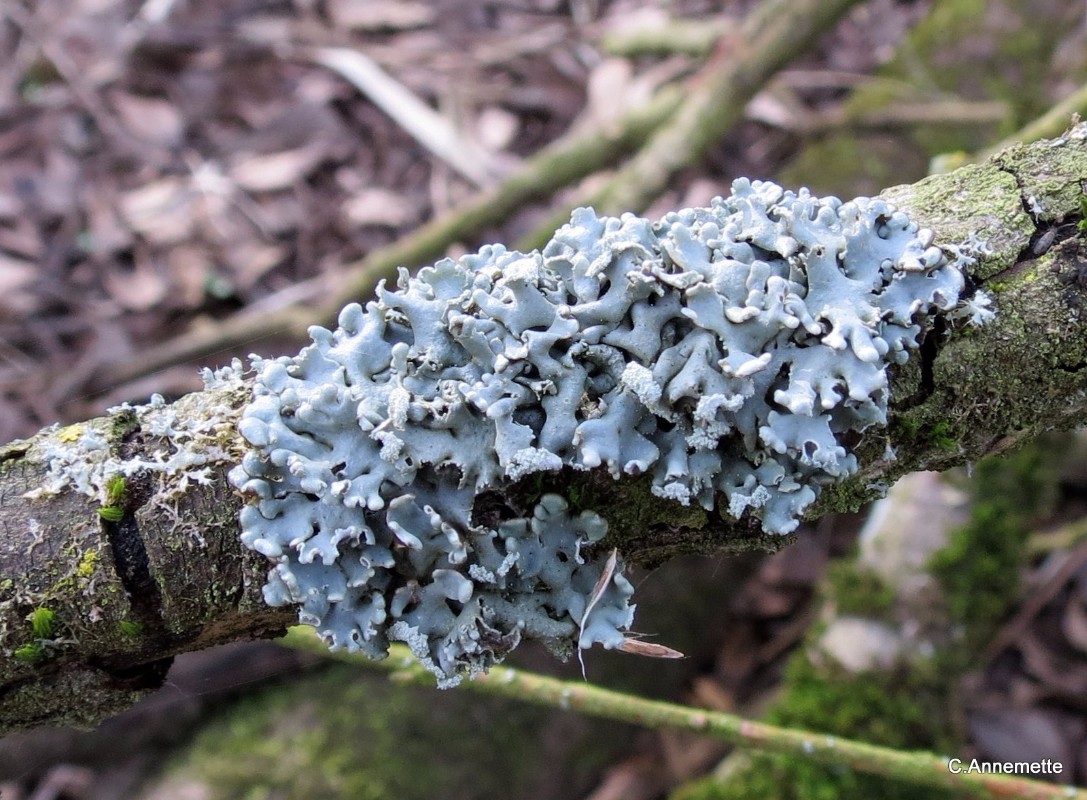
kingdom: Fungi
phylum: Ascomycota
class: Lecanoromycetes
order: Lecanorales
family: Parmeliaceae
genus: Hypogymnia
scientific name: Hypogymnia physodes
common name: almindelig kvistlav
